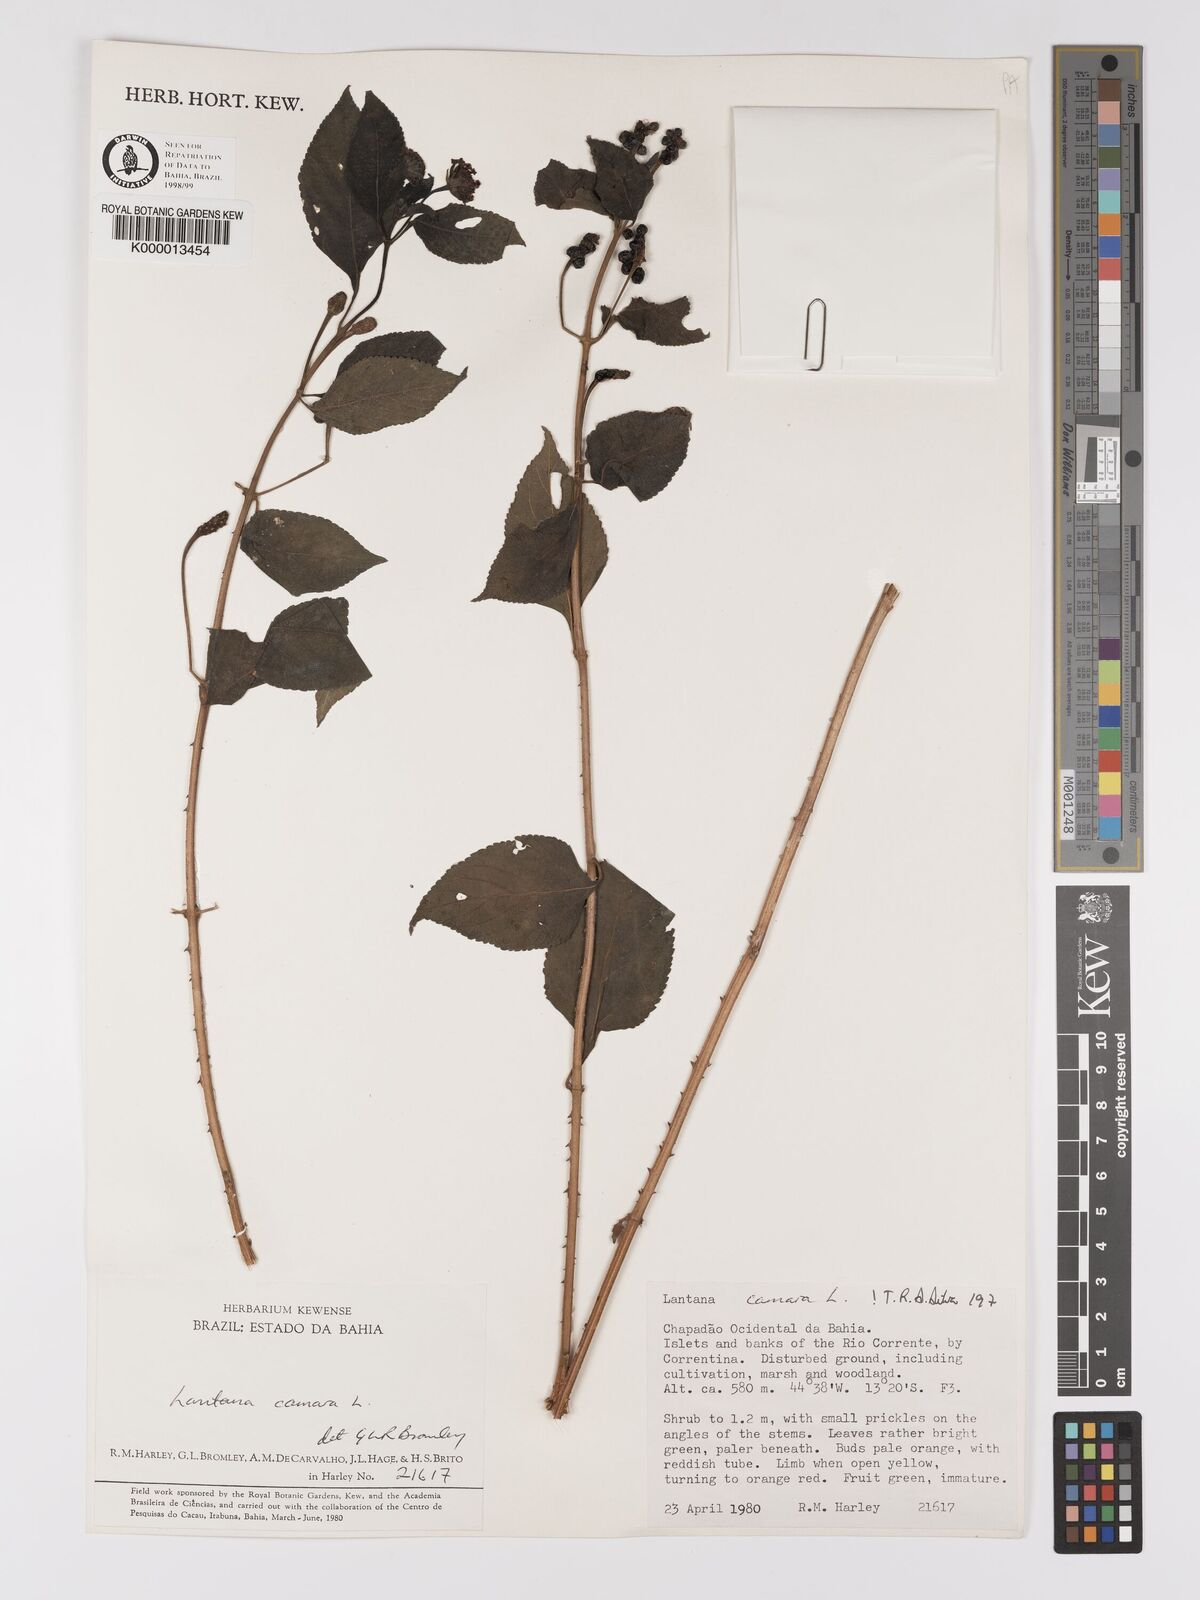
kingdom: Plantae
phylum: Tracheophyta
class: Magnoliopsida
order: Lamiales
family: Verbenaceae
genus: Lantana
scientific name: Lantana camara
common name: Lantana
